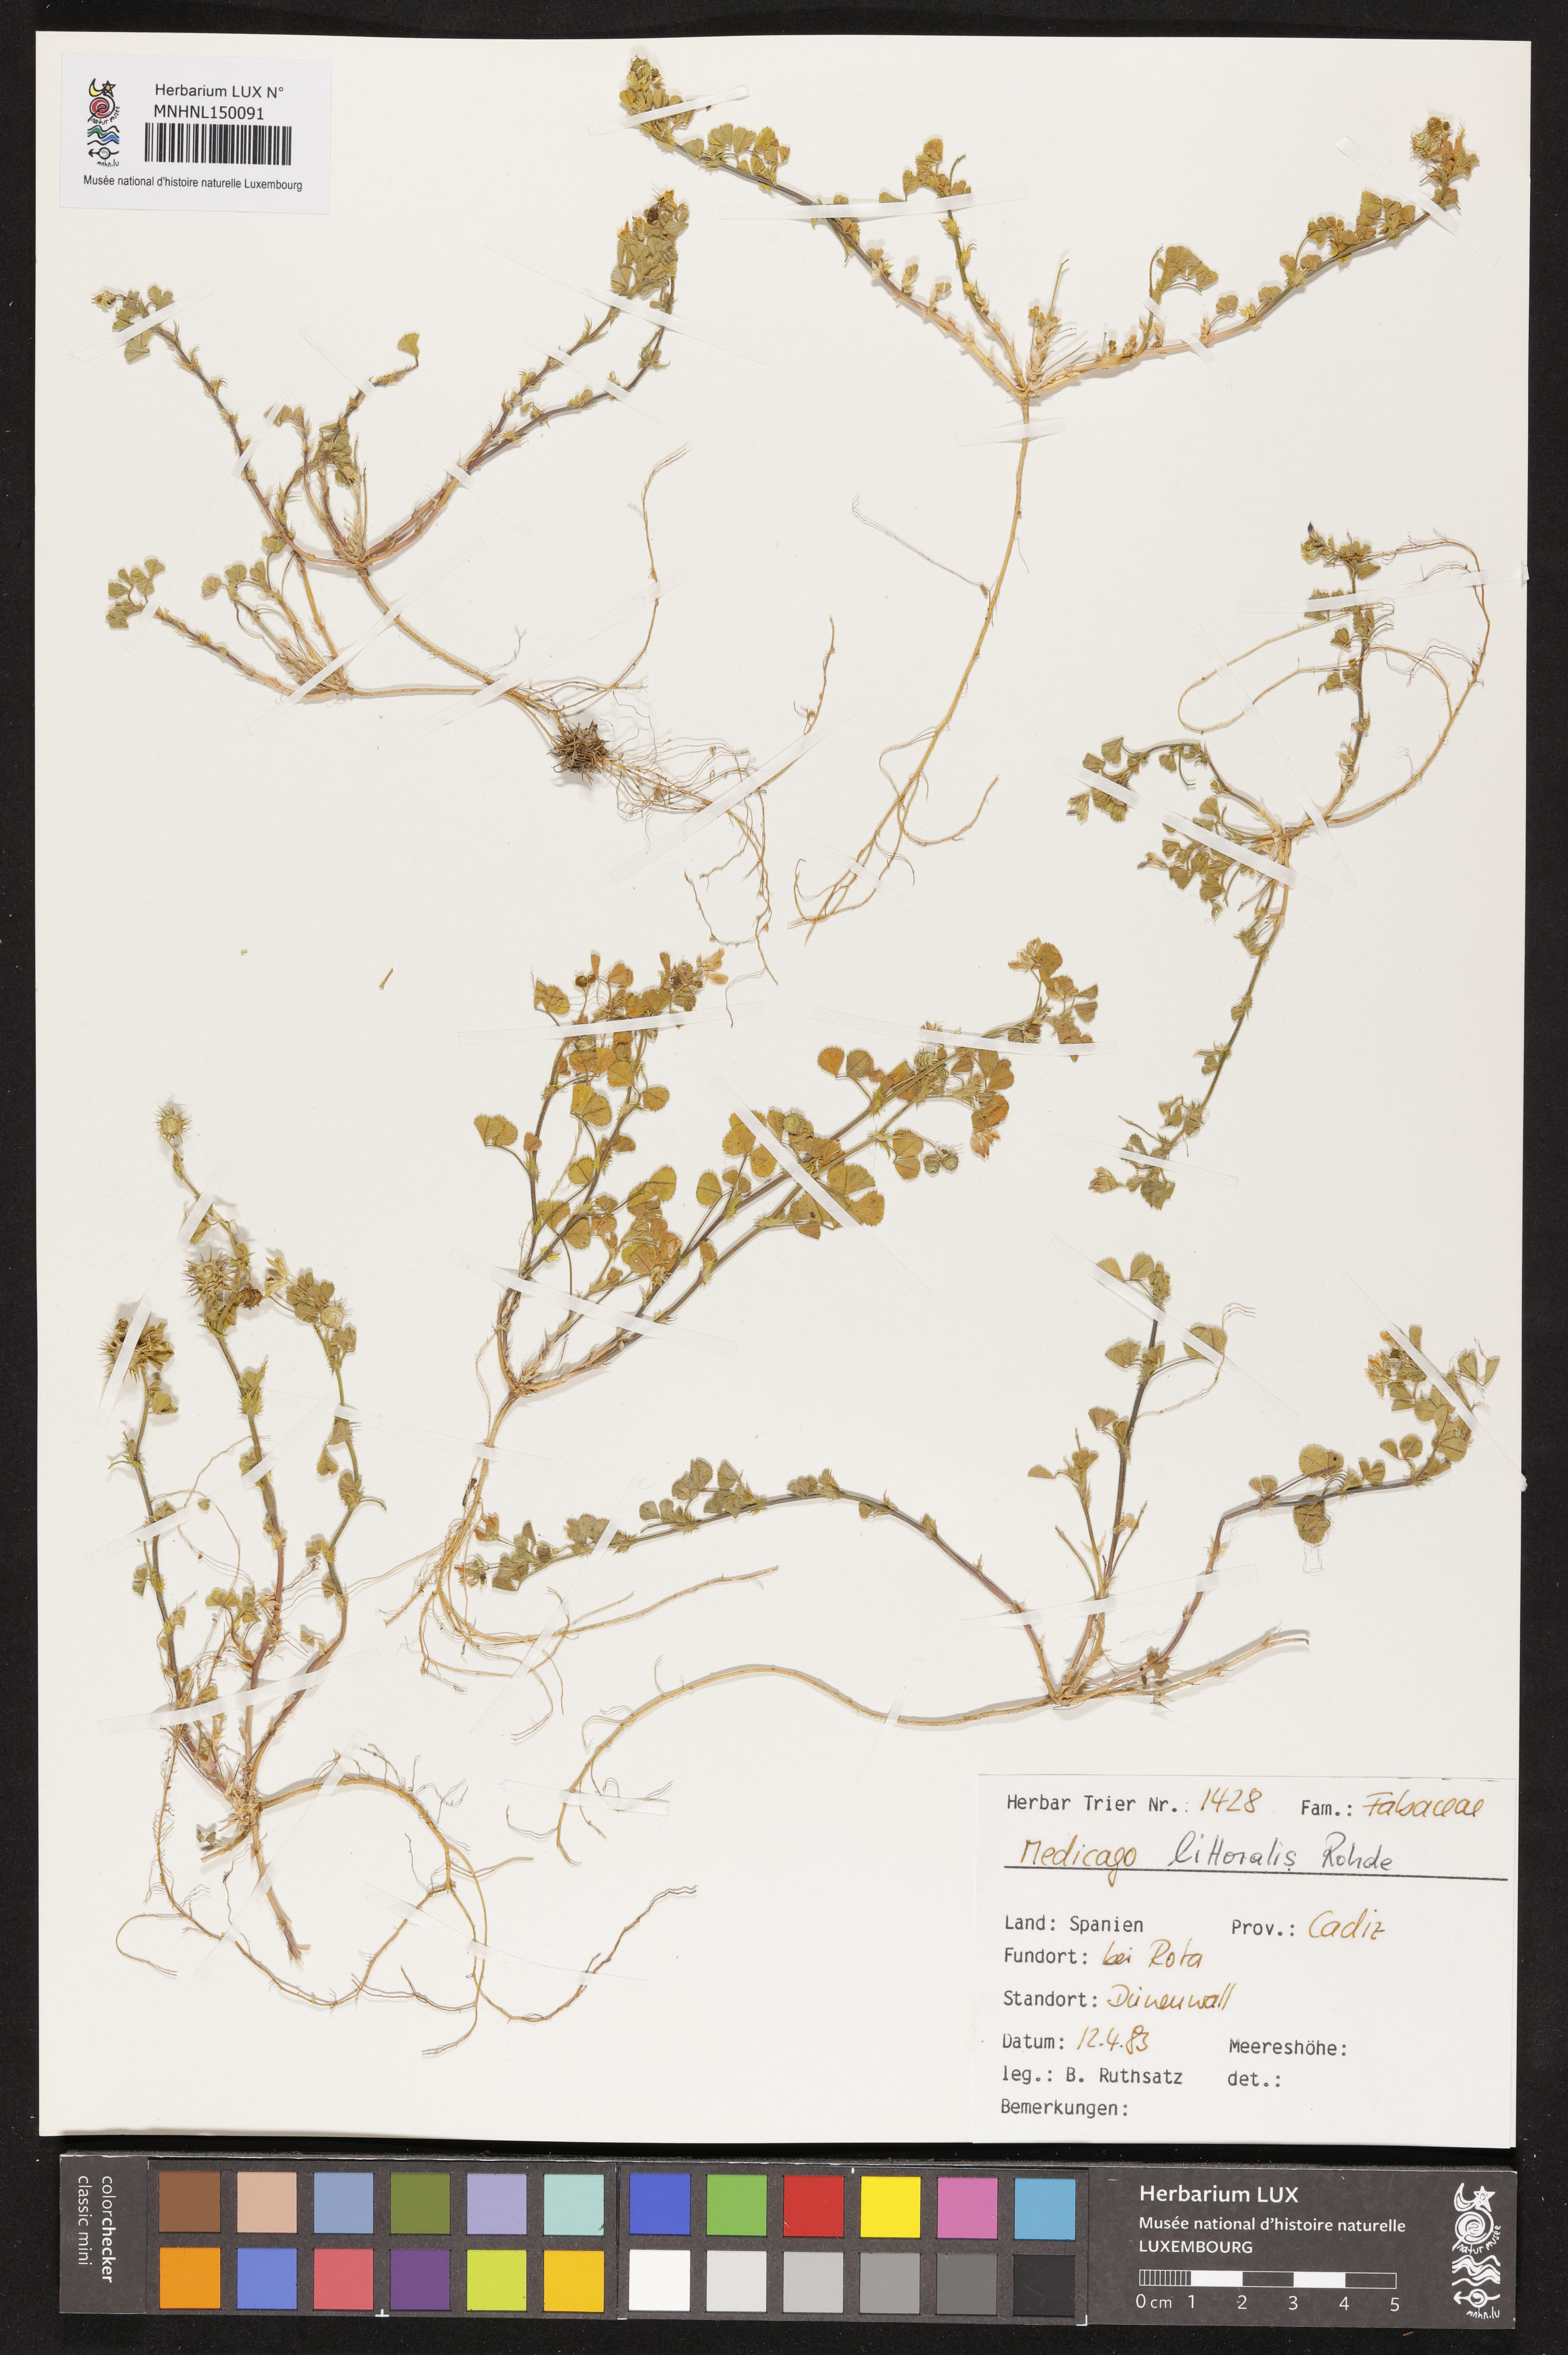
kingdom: Plantae
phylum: Tracheophyta
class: Magnoliopsida
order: Fabales
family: Fabaceae
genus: Medicago
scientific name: Medicago littoralis
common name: Shore medick
